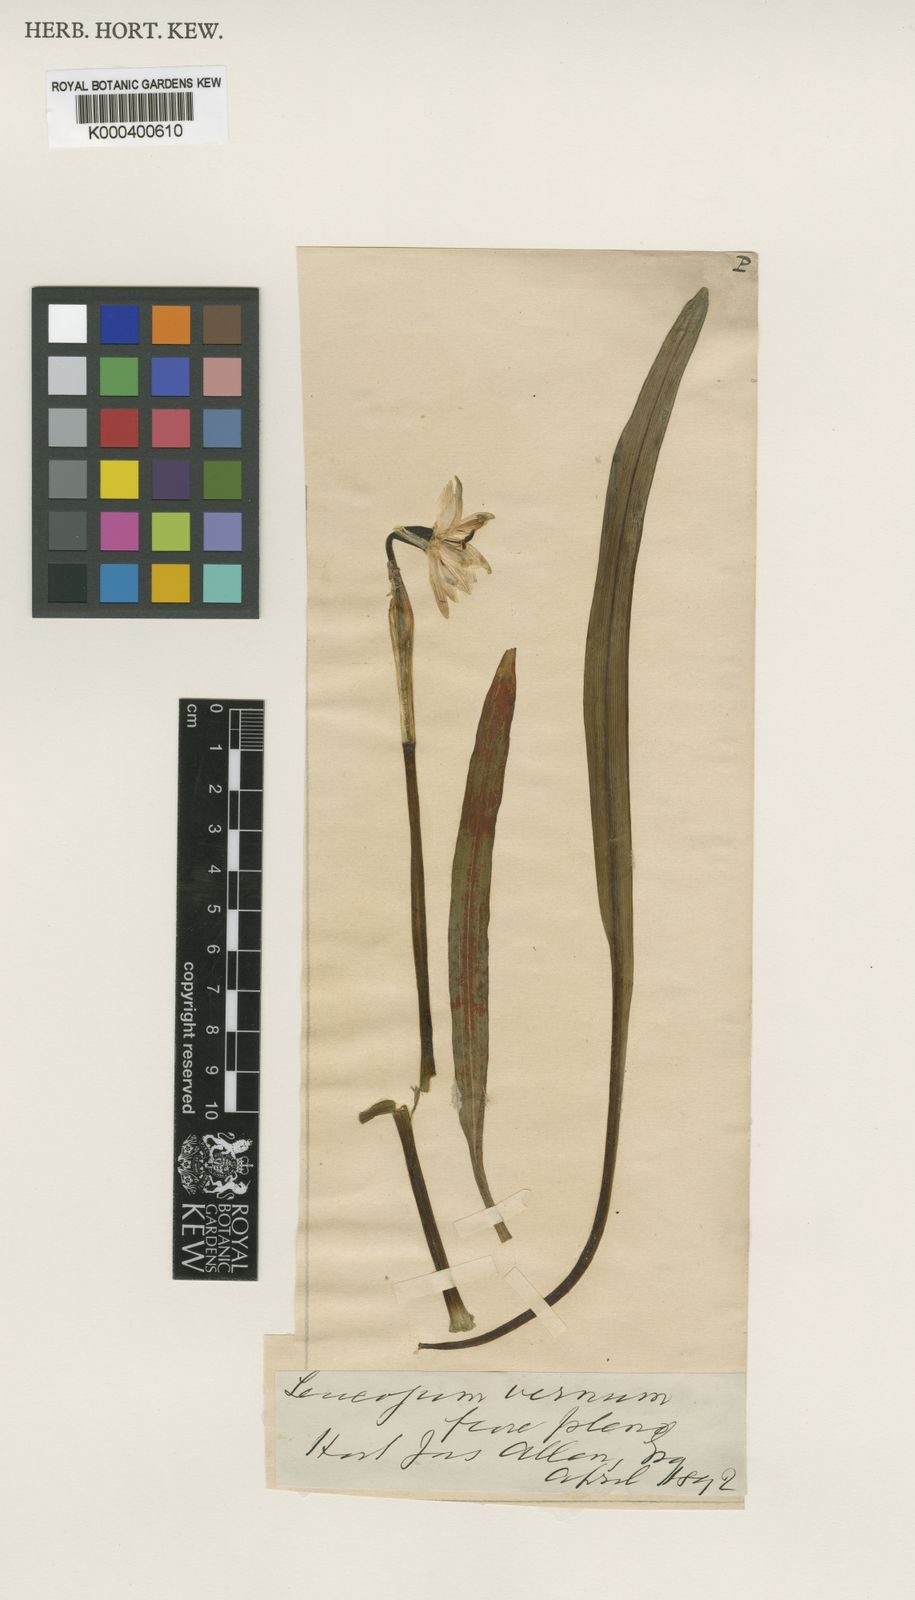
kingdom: Plantae
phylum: Tracheophyta
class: Liliopsida
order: Asparagales
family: Amaryllidaceae
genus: Leucojum
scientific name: Leucojum vernum
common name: Spring snowflake
